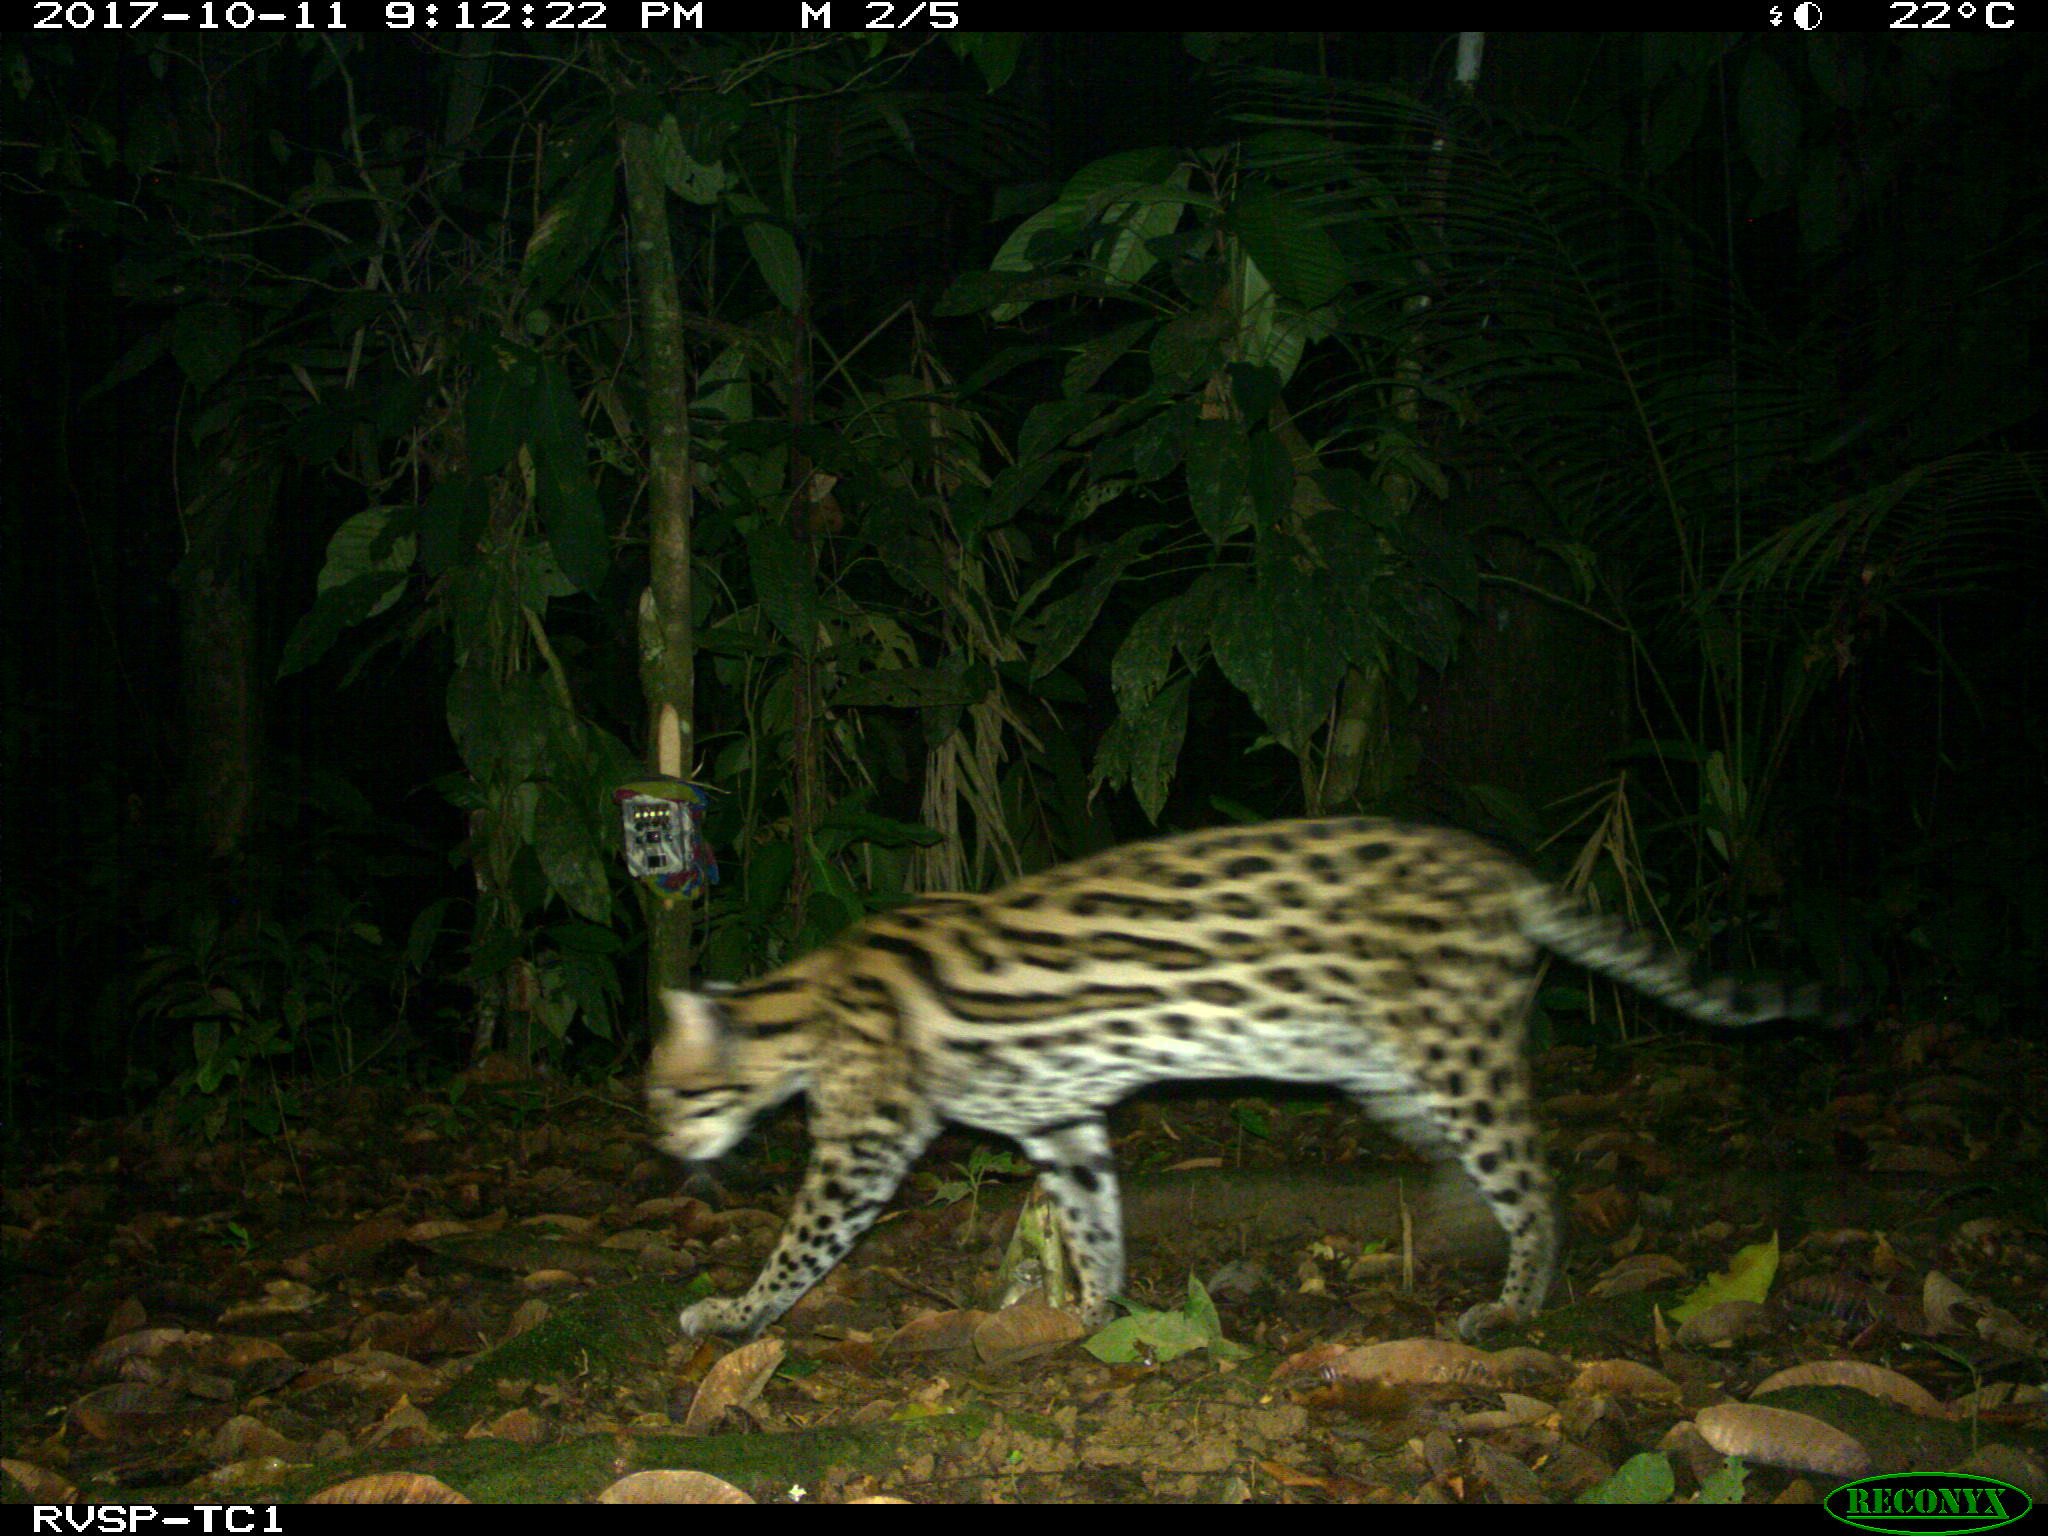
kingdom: Animalia
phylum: Chordata
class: Mammalia
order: Carnivora
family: Felidae
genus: Leopardus
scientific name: Leopardus pardalis
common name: Ocelot
